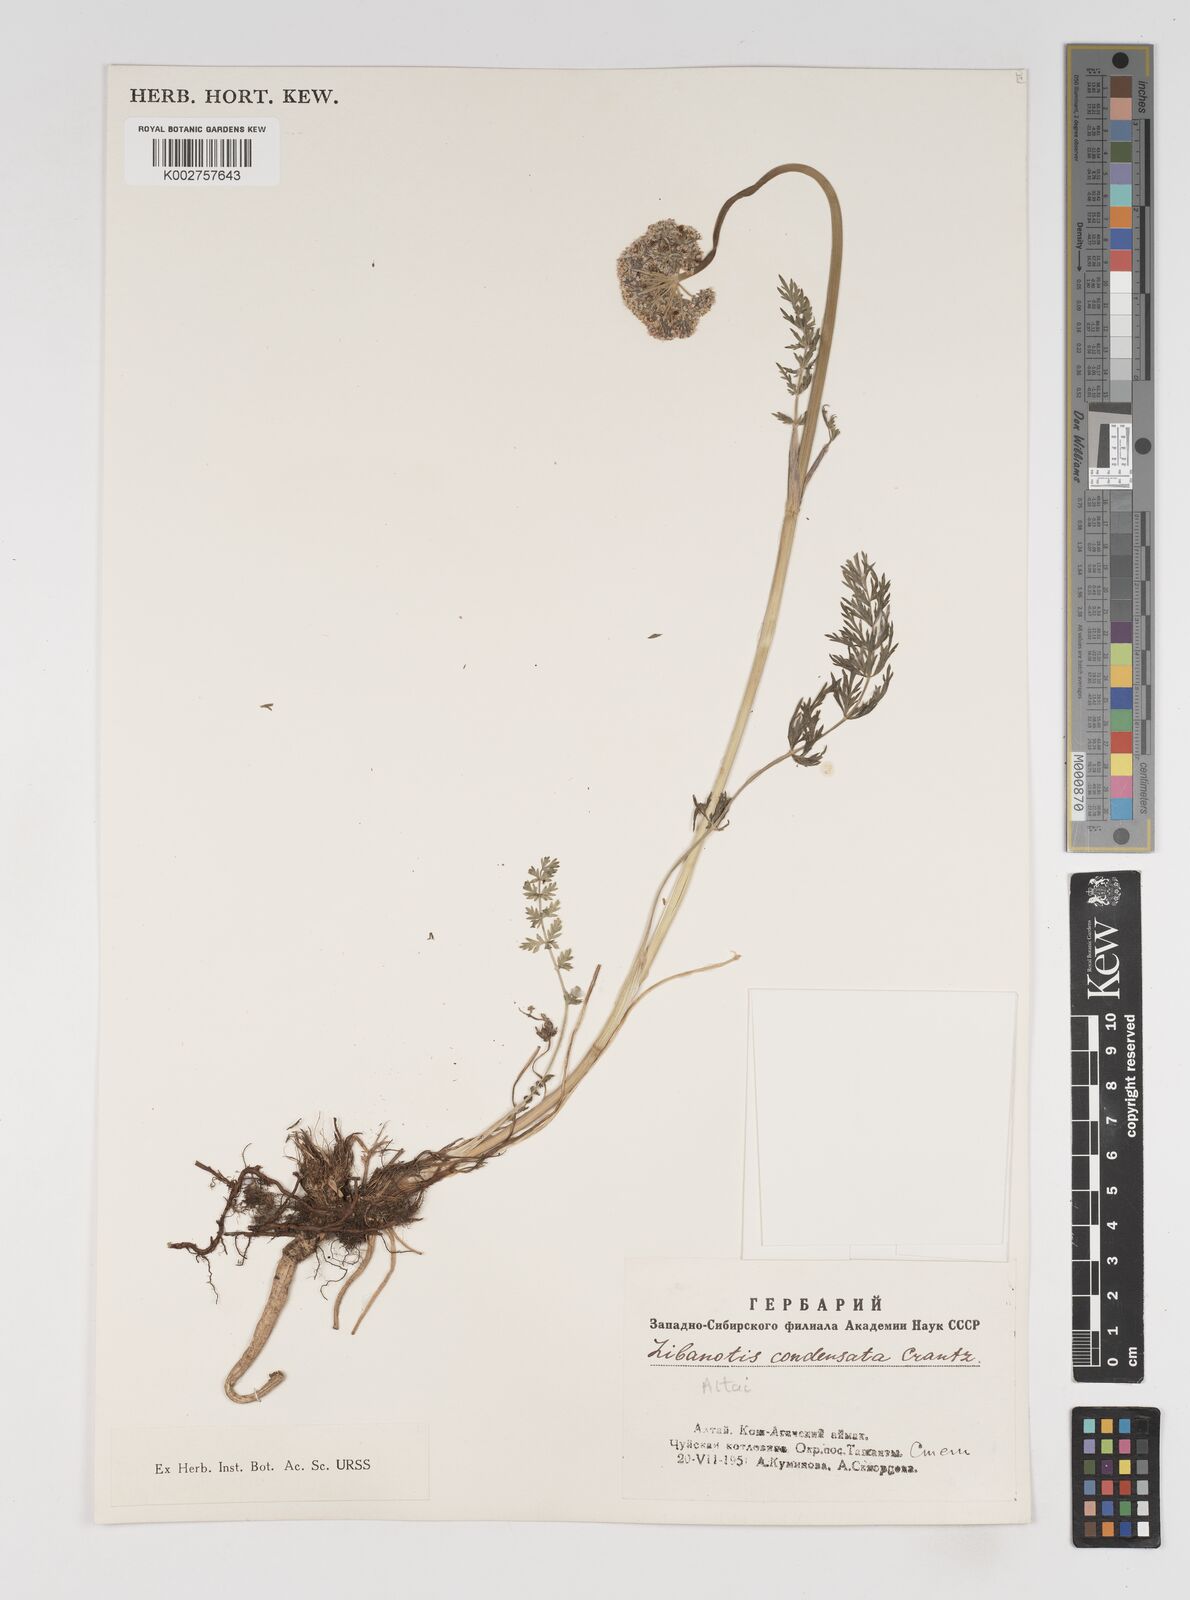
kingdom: Plantae
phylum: Tracheophyta
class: Magnoliopsida
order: Apiales
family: Apiaceae
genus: Seseli
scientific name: Seseli condensatum
